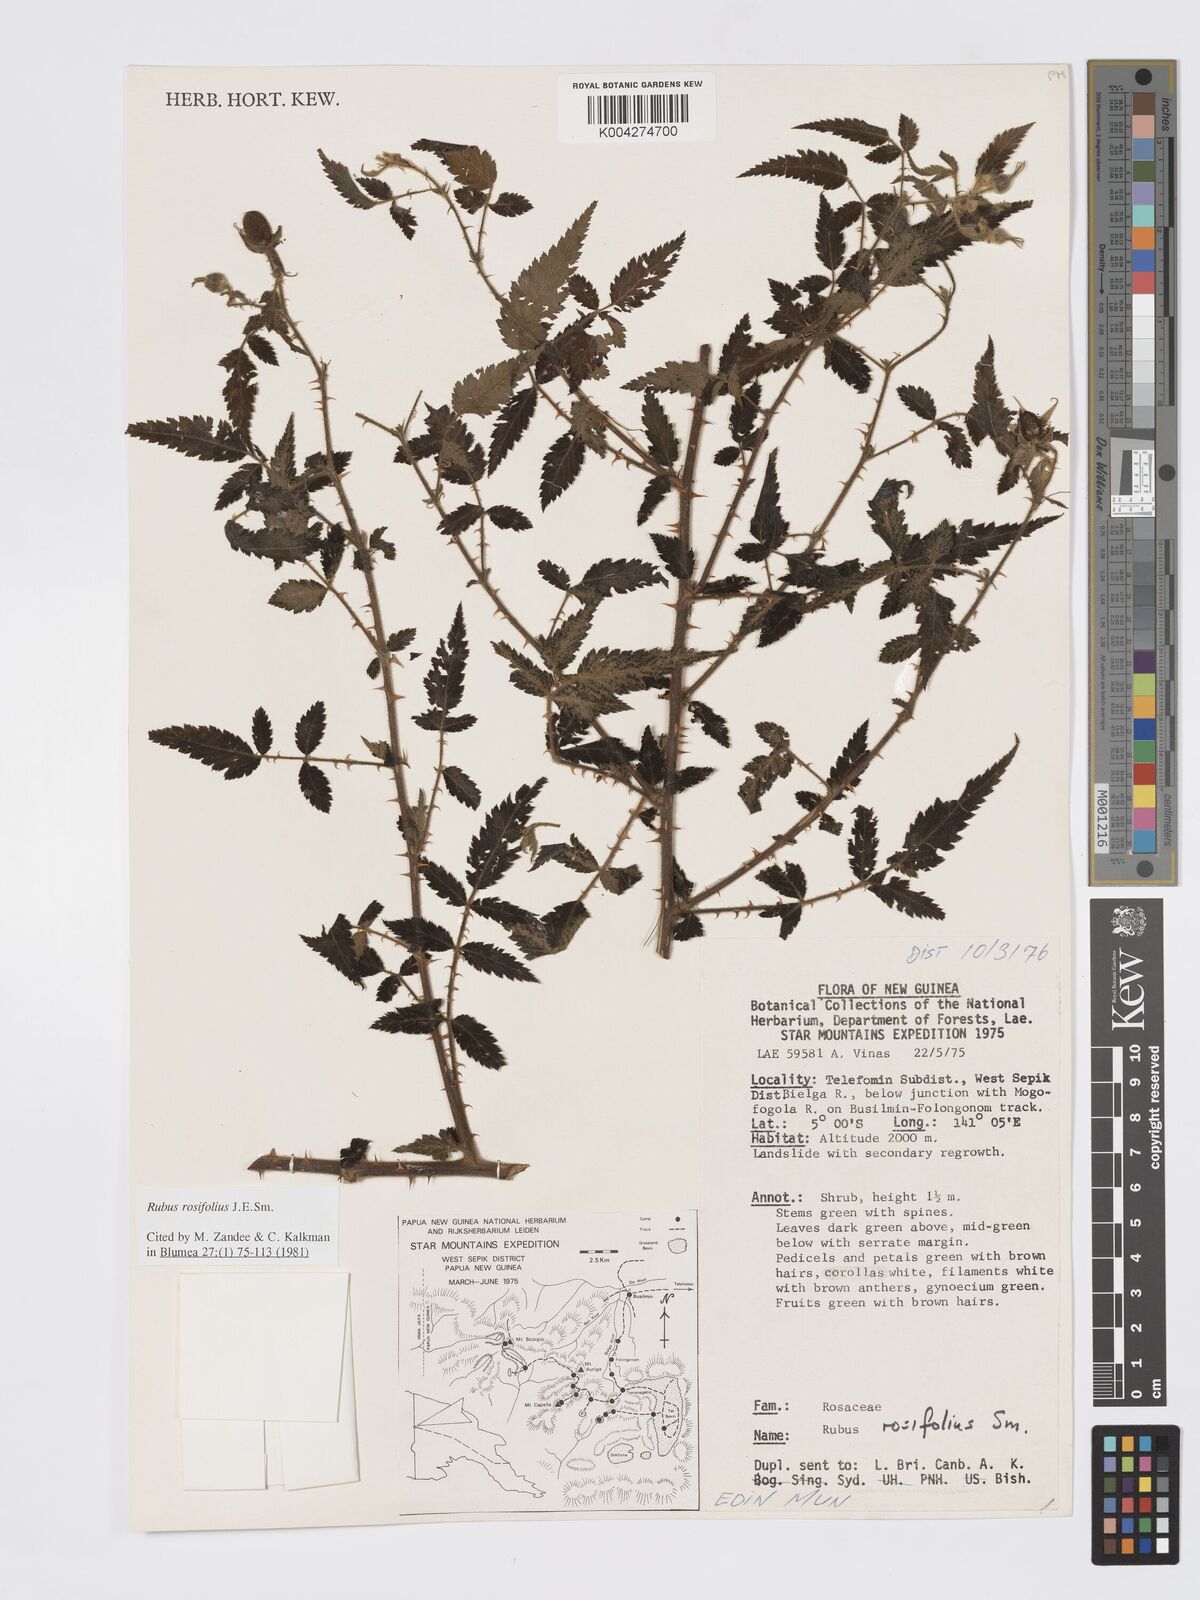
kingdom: Plantae
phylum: Tracheophyta
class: Magnoliopsida
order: Rosales
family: Rosaceae
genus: Rubus
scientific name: Rubus
